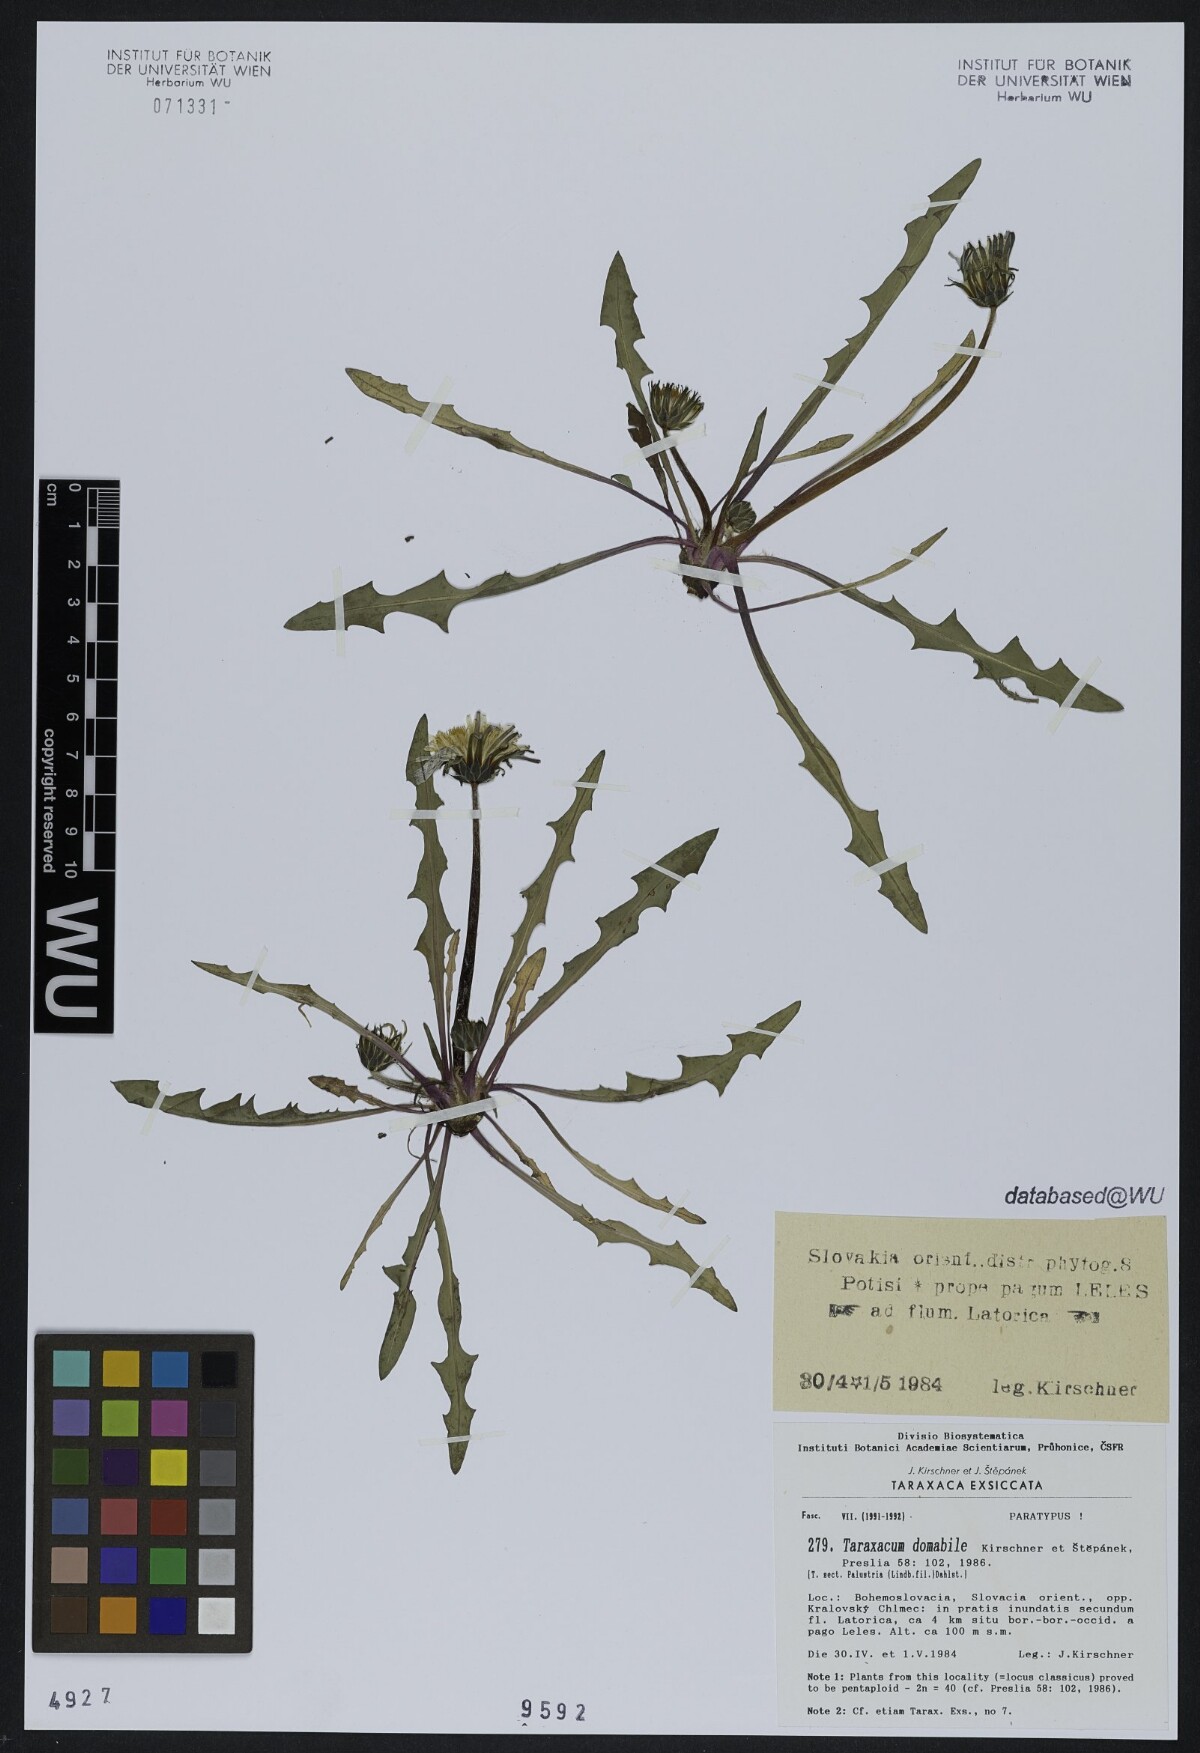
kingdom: Plantae
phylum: Tracheophyta
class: Magnoliopsida
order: Asterales
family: Asteraceae
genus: Taraxacum
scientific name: Taraxacum domabile
